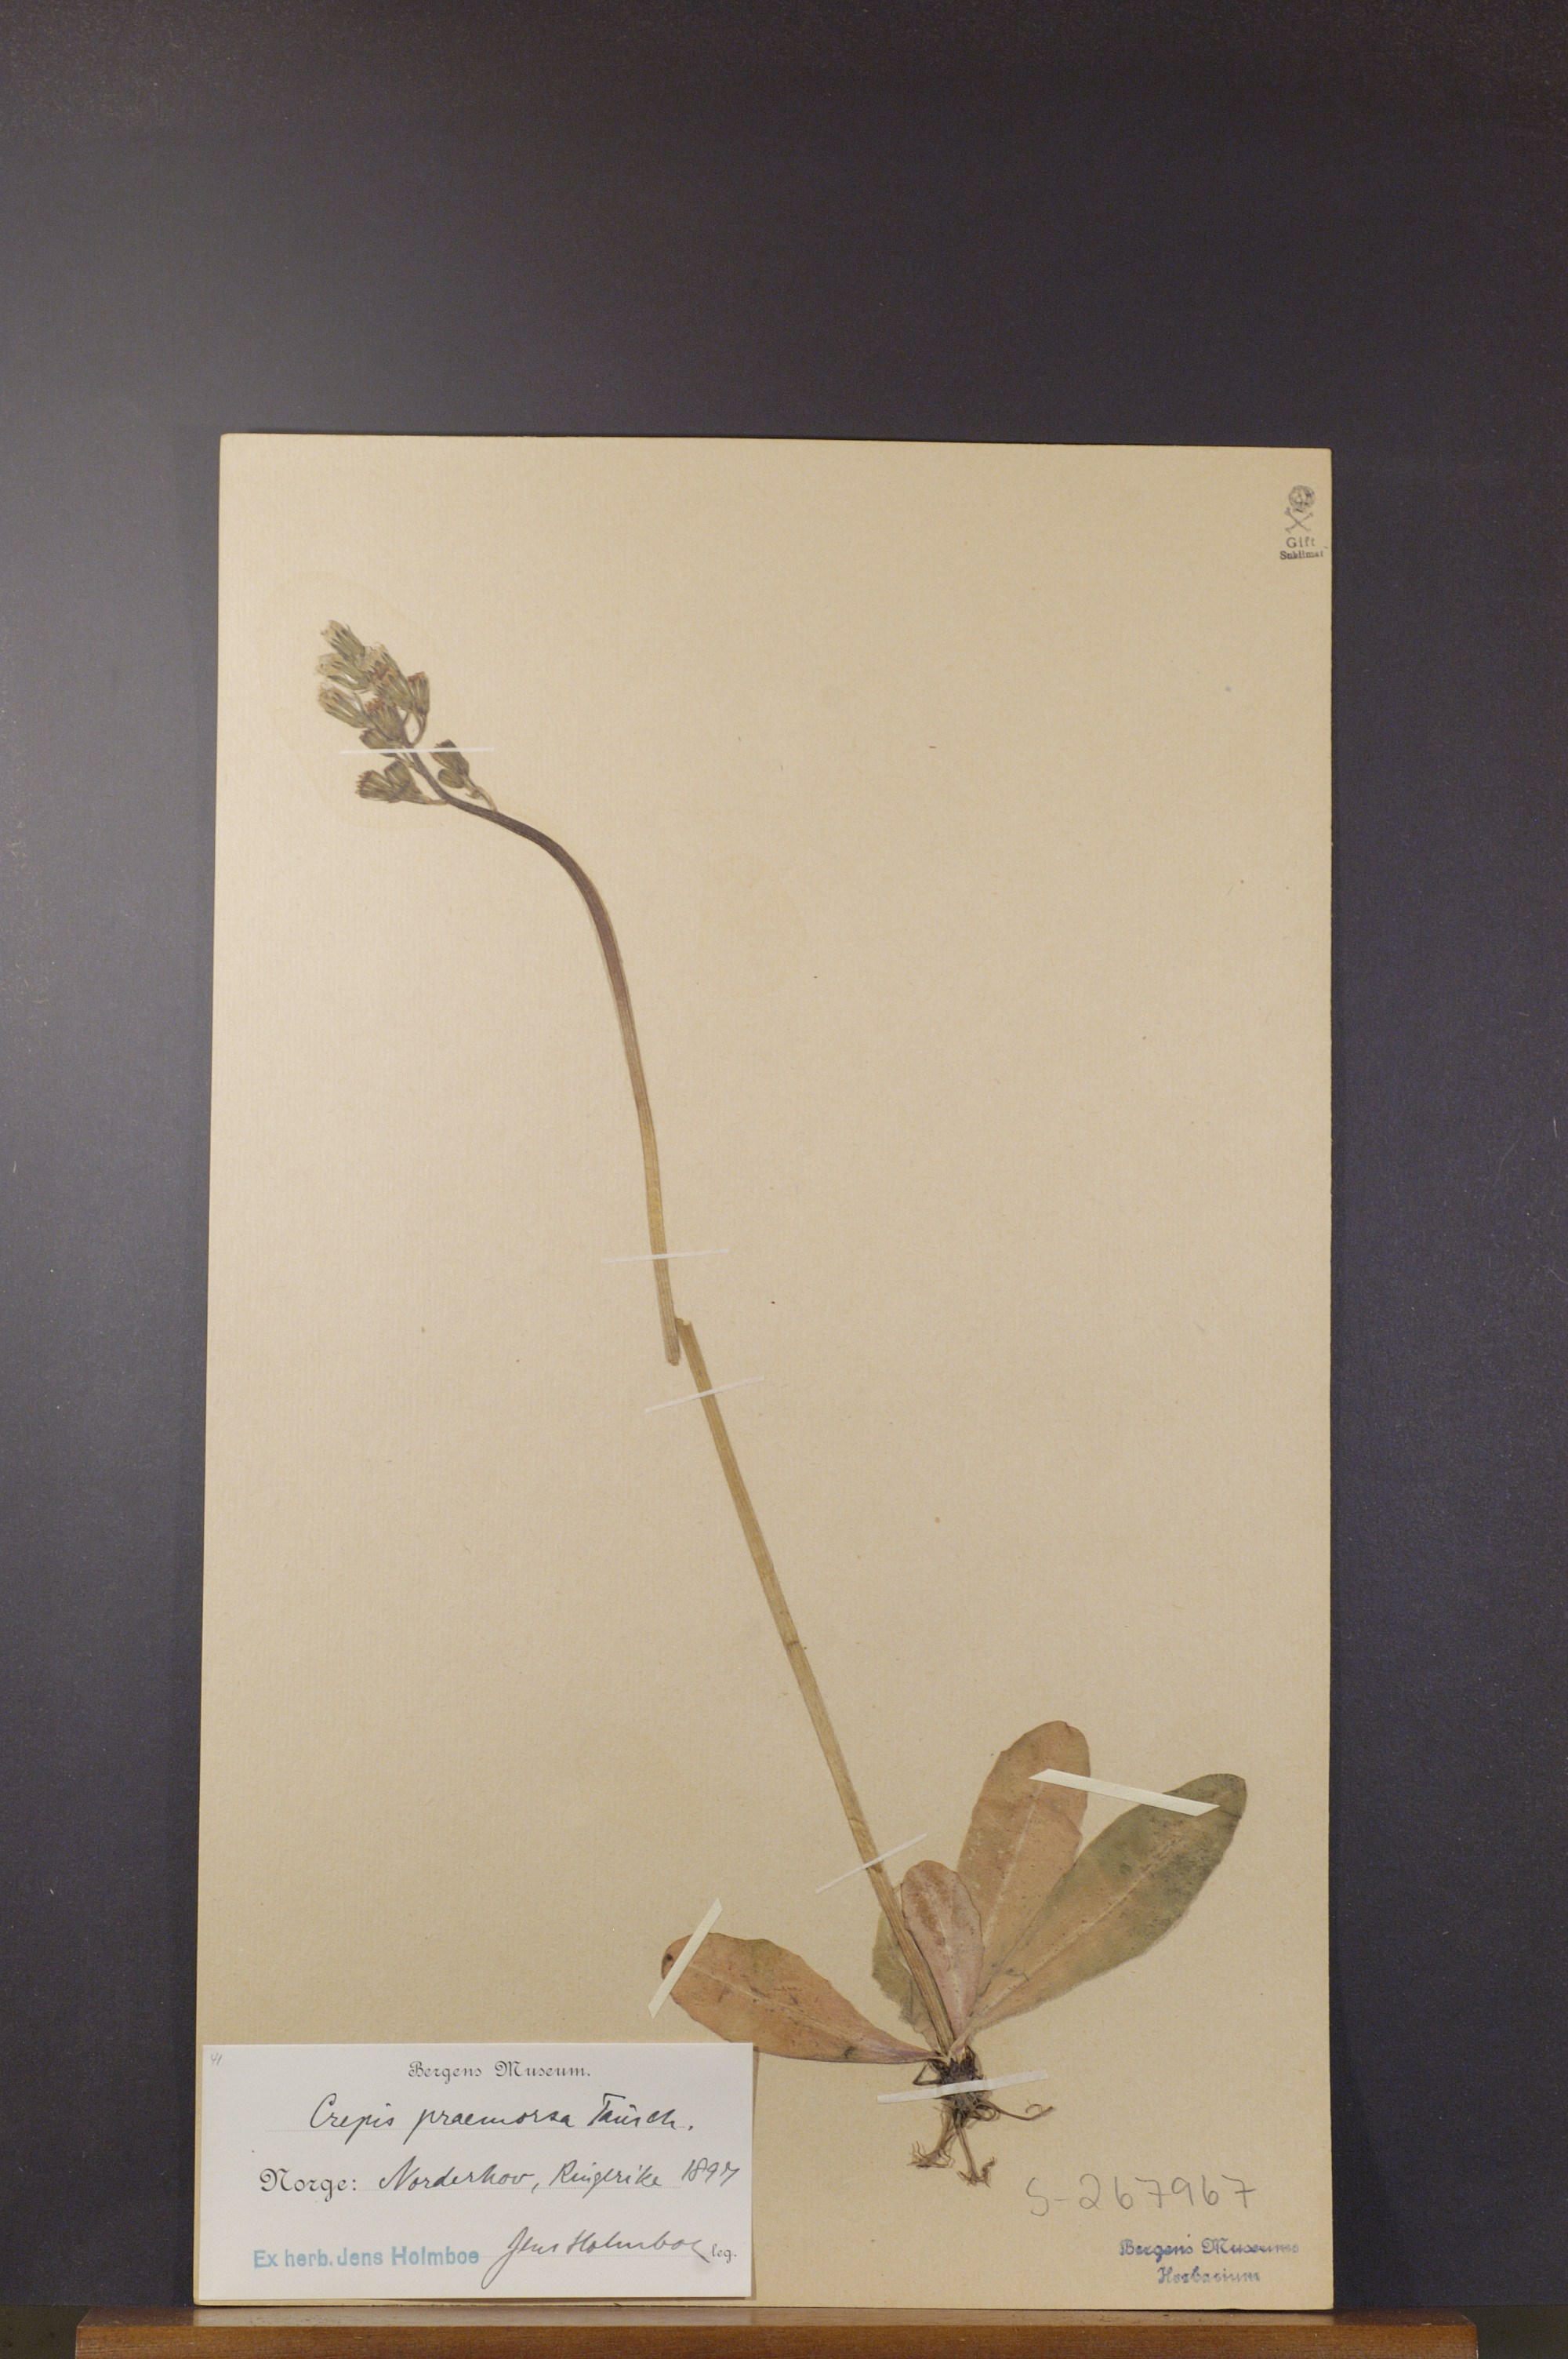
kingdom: Plantae
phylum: Tracheophyta
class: Magnoliopsida
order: Asterales
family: Asteraceae
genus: Crepis
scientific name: Crepis praemorsa
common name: Leafless hawk's-beard
